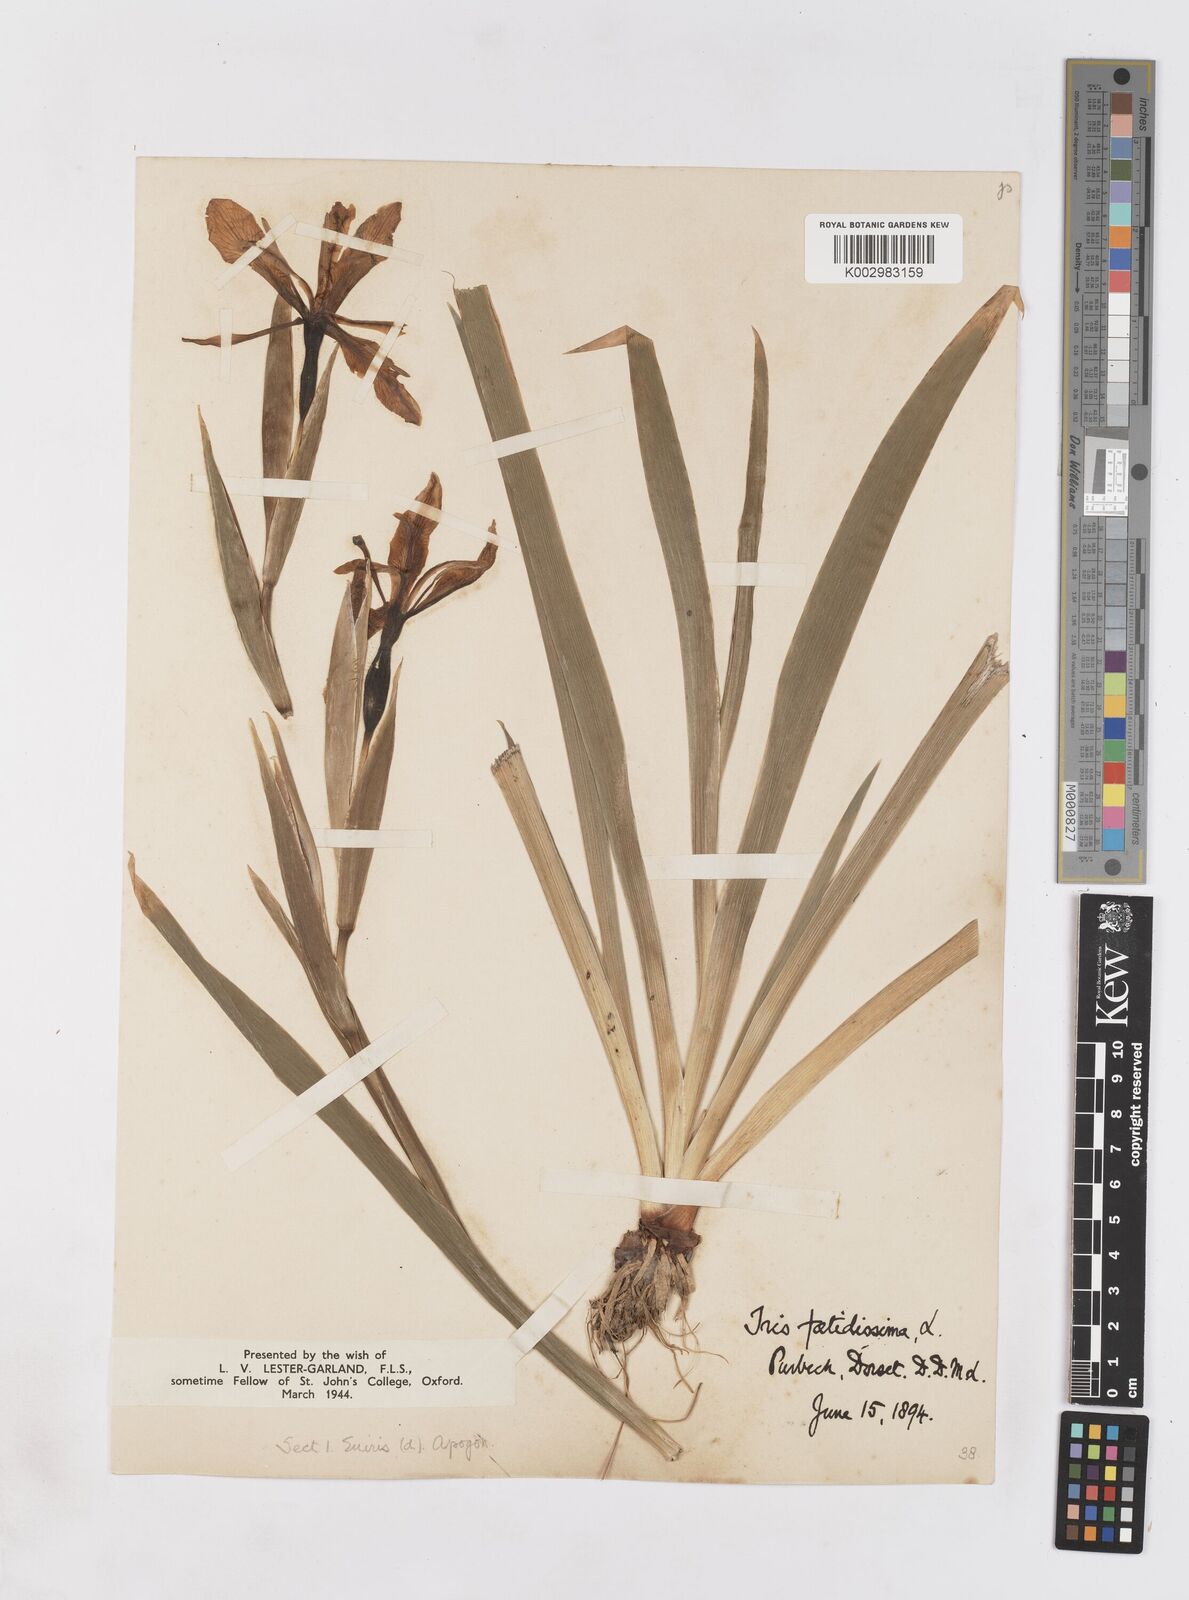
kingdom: Plantae
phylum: Tracheophyta
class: Liliopsida
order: Asparagales
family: Iridaceae
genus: Iris
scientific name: Iris foetidissima
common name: Stinking iris
